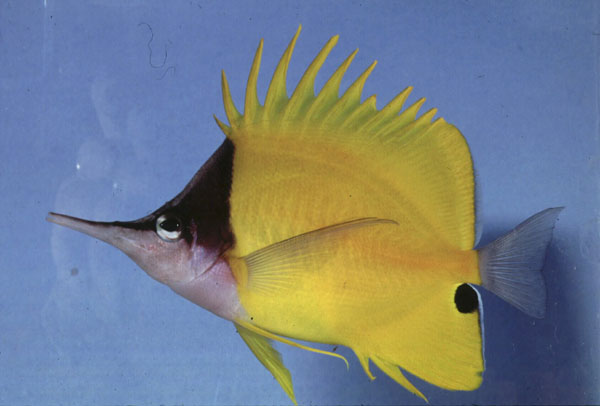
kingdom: Animalia
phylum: Chordata
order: Perciformes
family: Chaetodontidae
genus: Forcipiger
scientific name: Forcipiger flavissimus
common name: Forcepsfish
